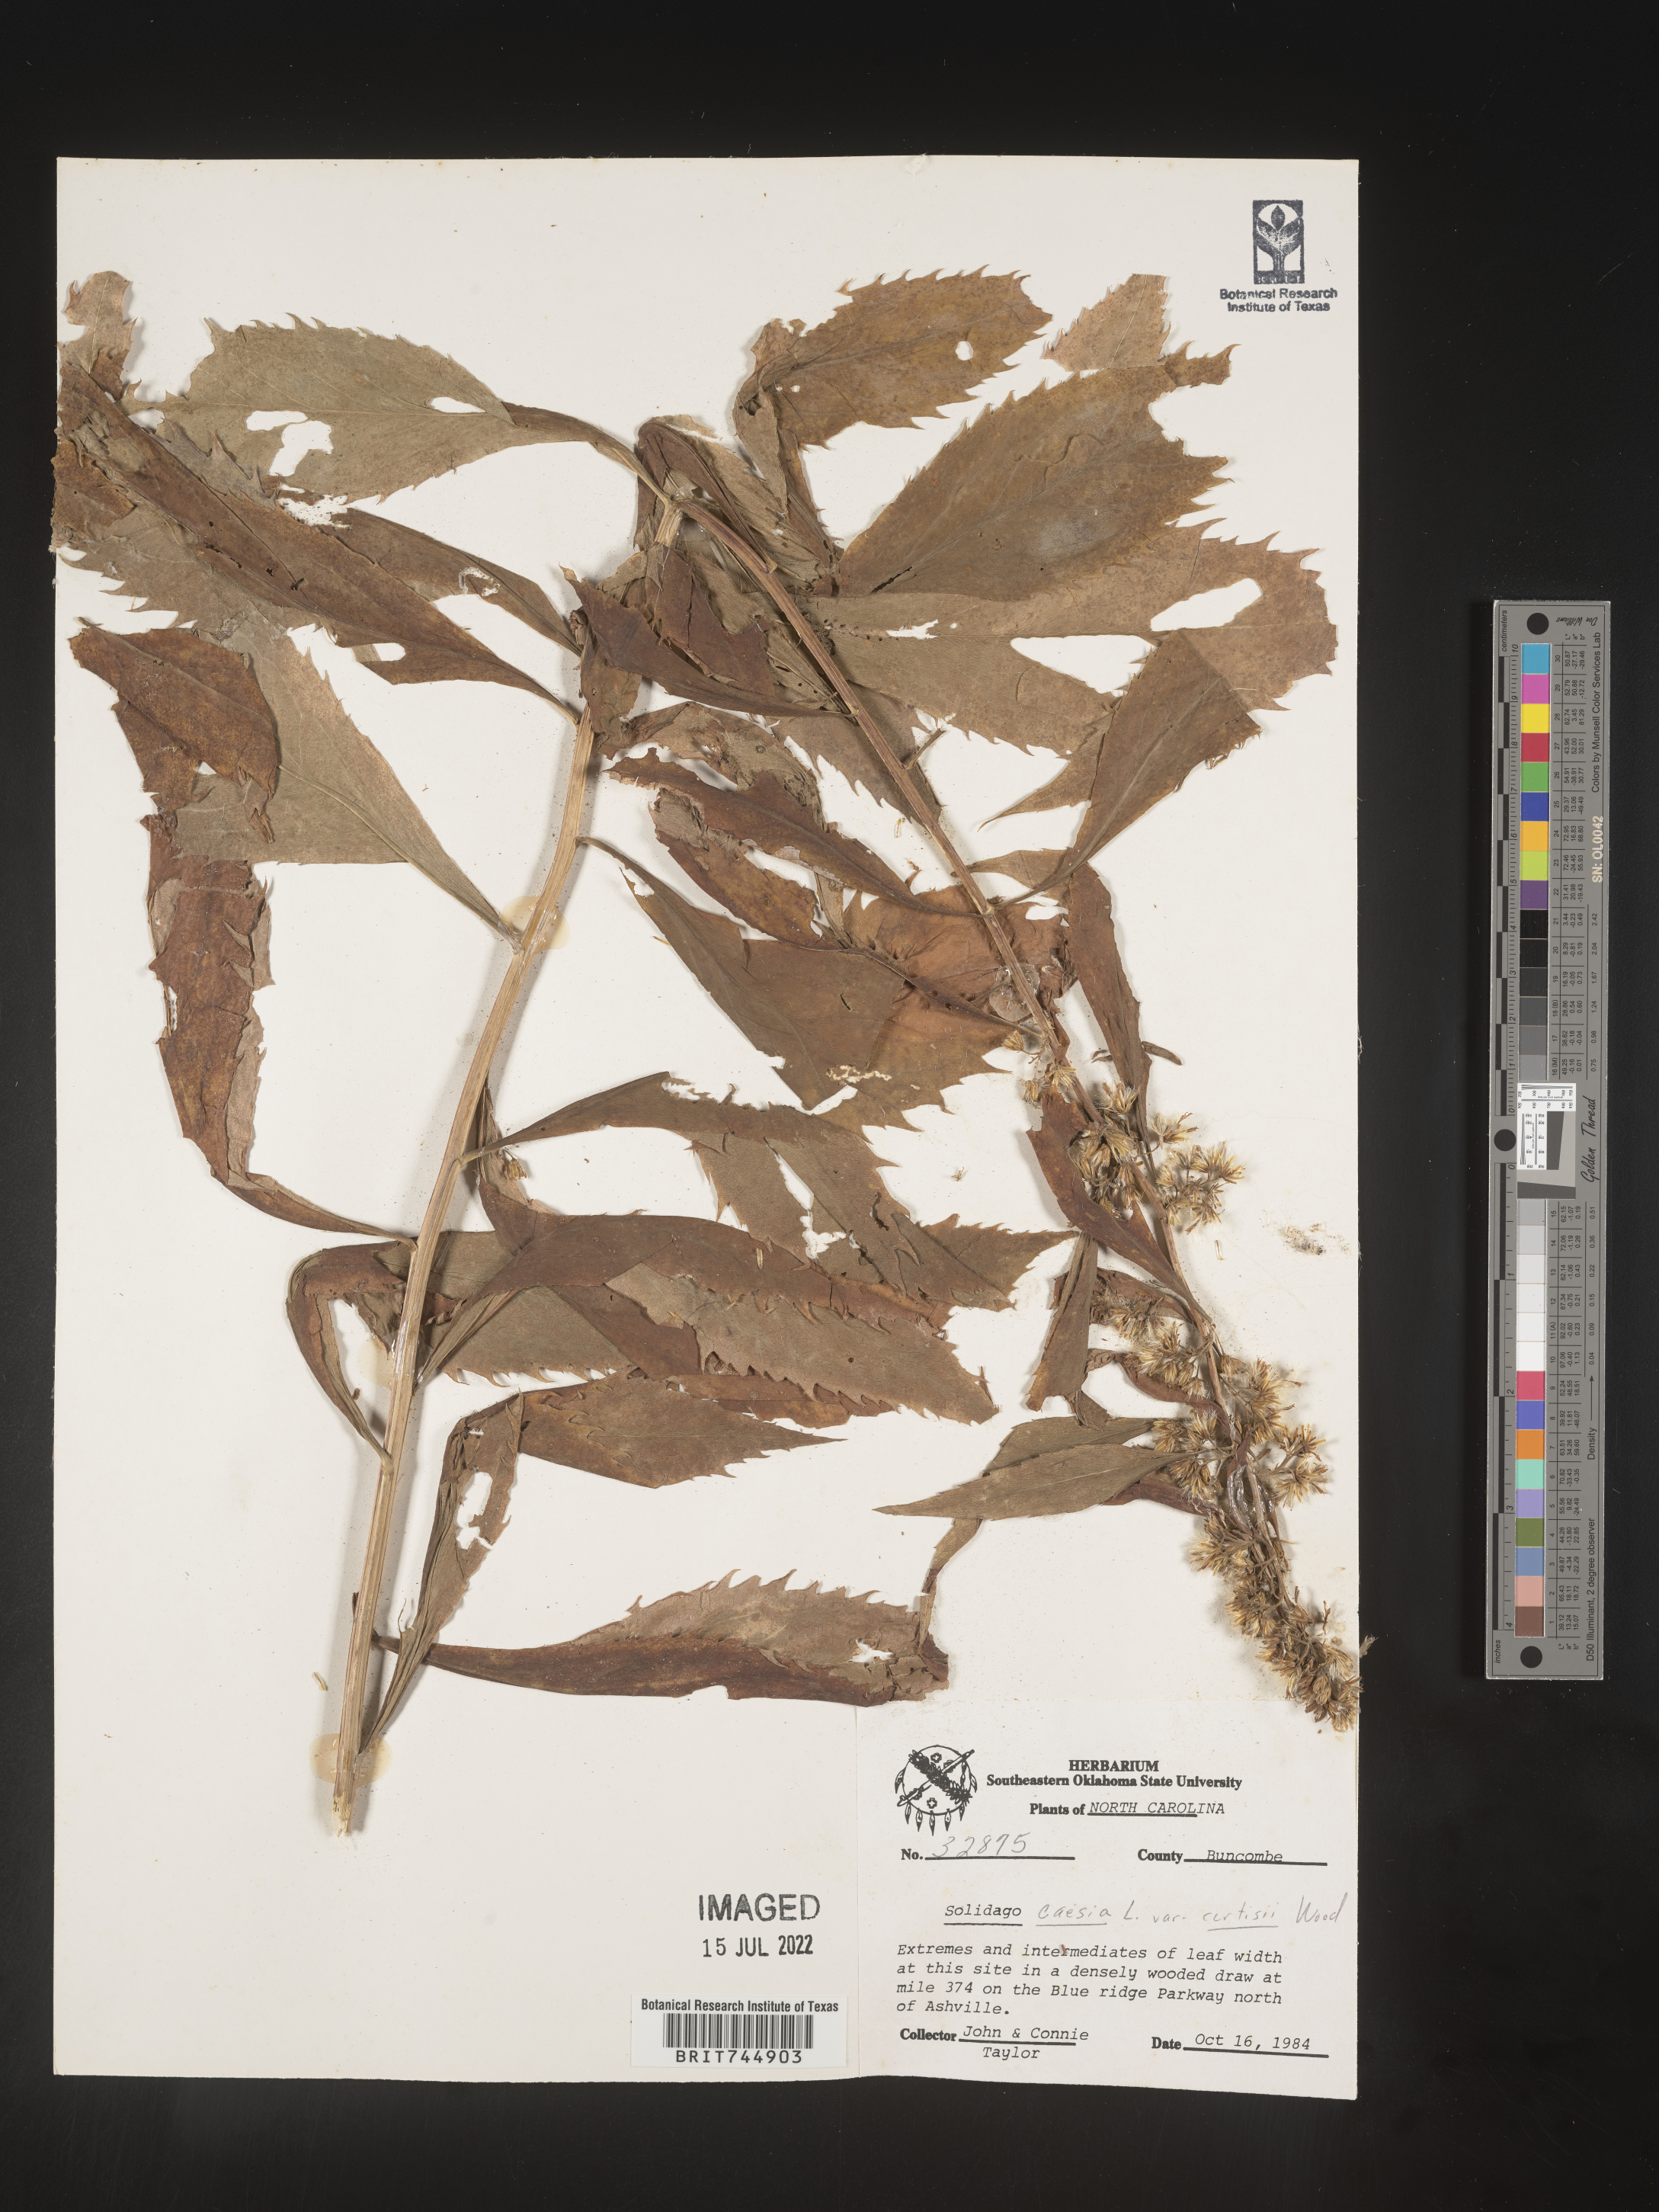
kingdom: Plantae
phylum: Tracheophyta
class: Magnoliopsida
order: Asterales
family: Asteraceae
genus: Solidago
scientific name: Solidago curtisii
